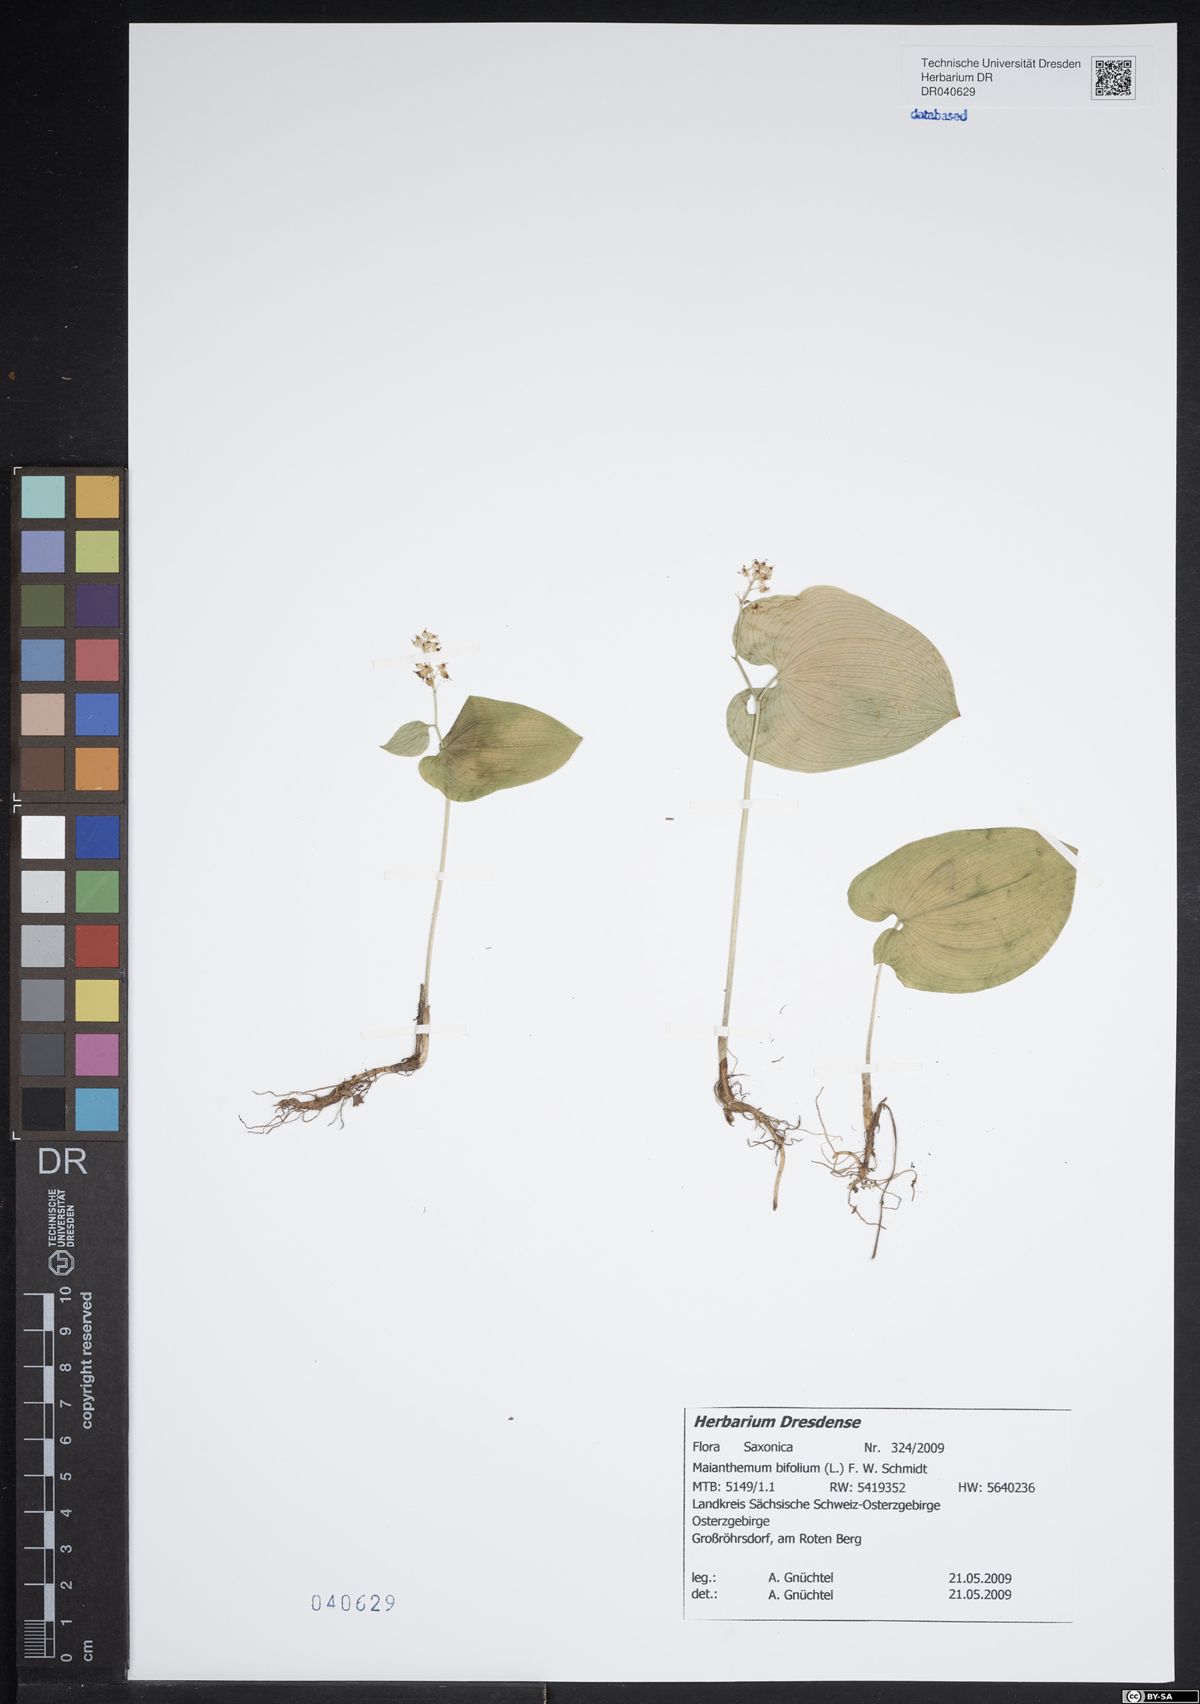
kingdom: Plantae
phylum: Tracheophyta
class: Liliopsida
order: Asparagales
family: Asparagaceae
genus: Maianthemum
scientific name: Maianthemum bifolium
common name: May lily
